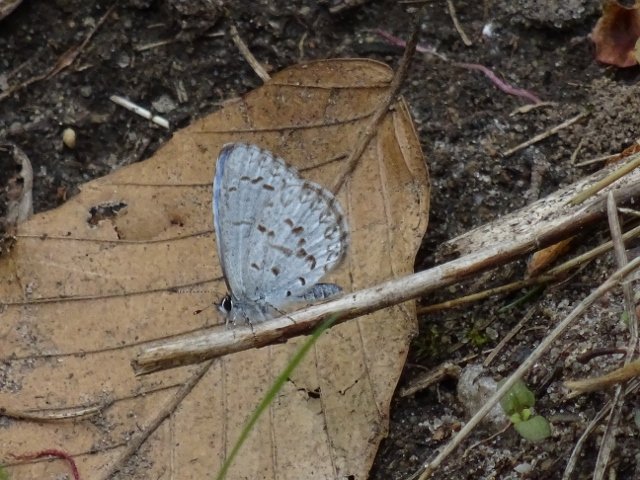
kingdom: Animalia
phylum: Arthropoda
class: Insecta
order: Lepidoptera
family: Lycaenidae
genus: Celastrina
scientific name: Celastrina
